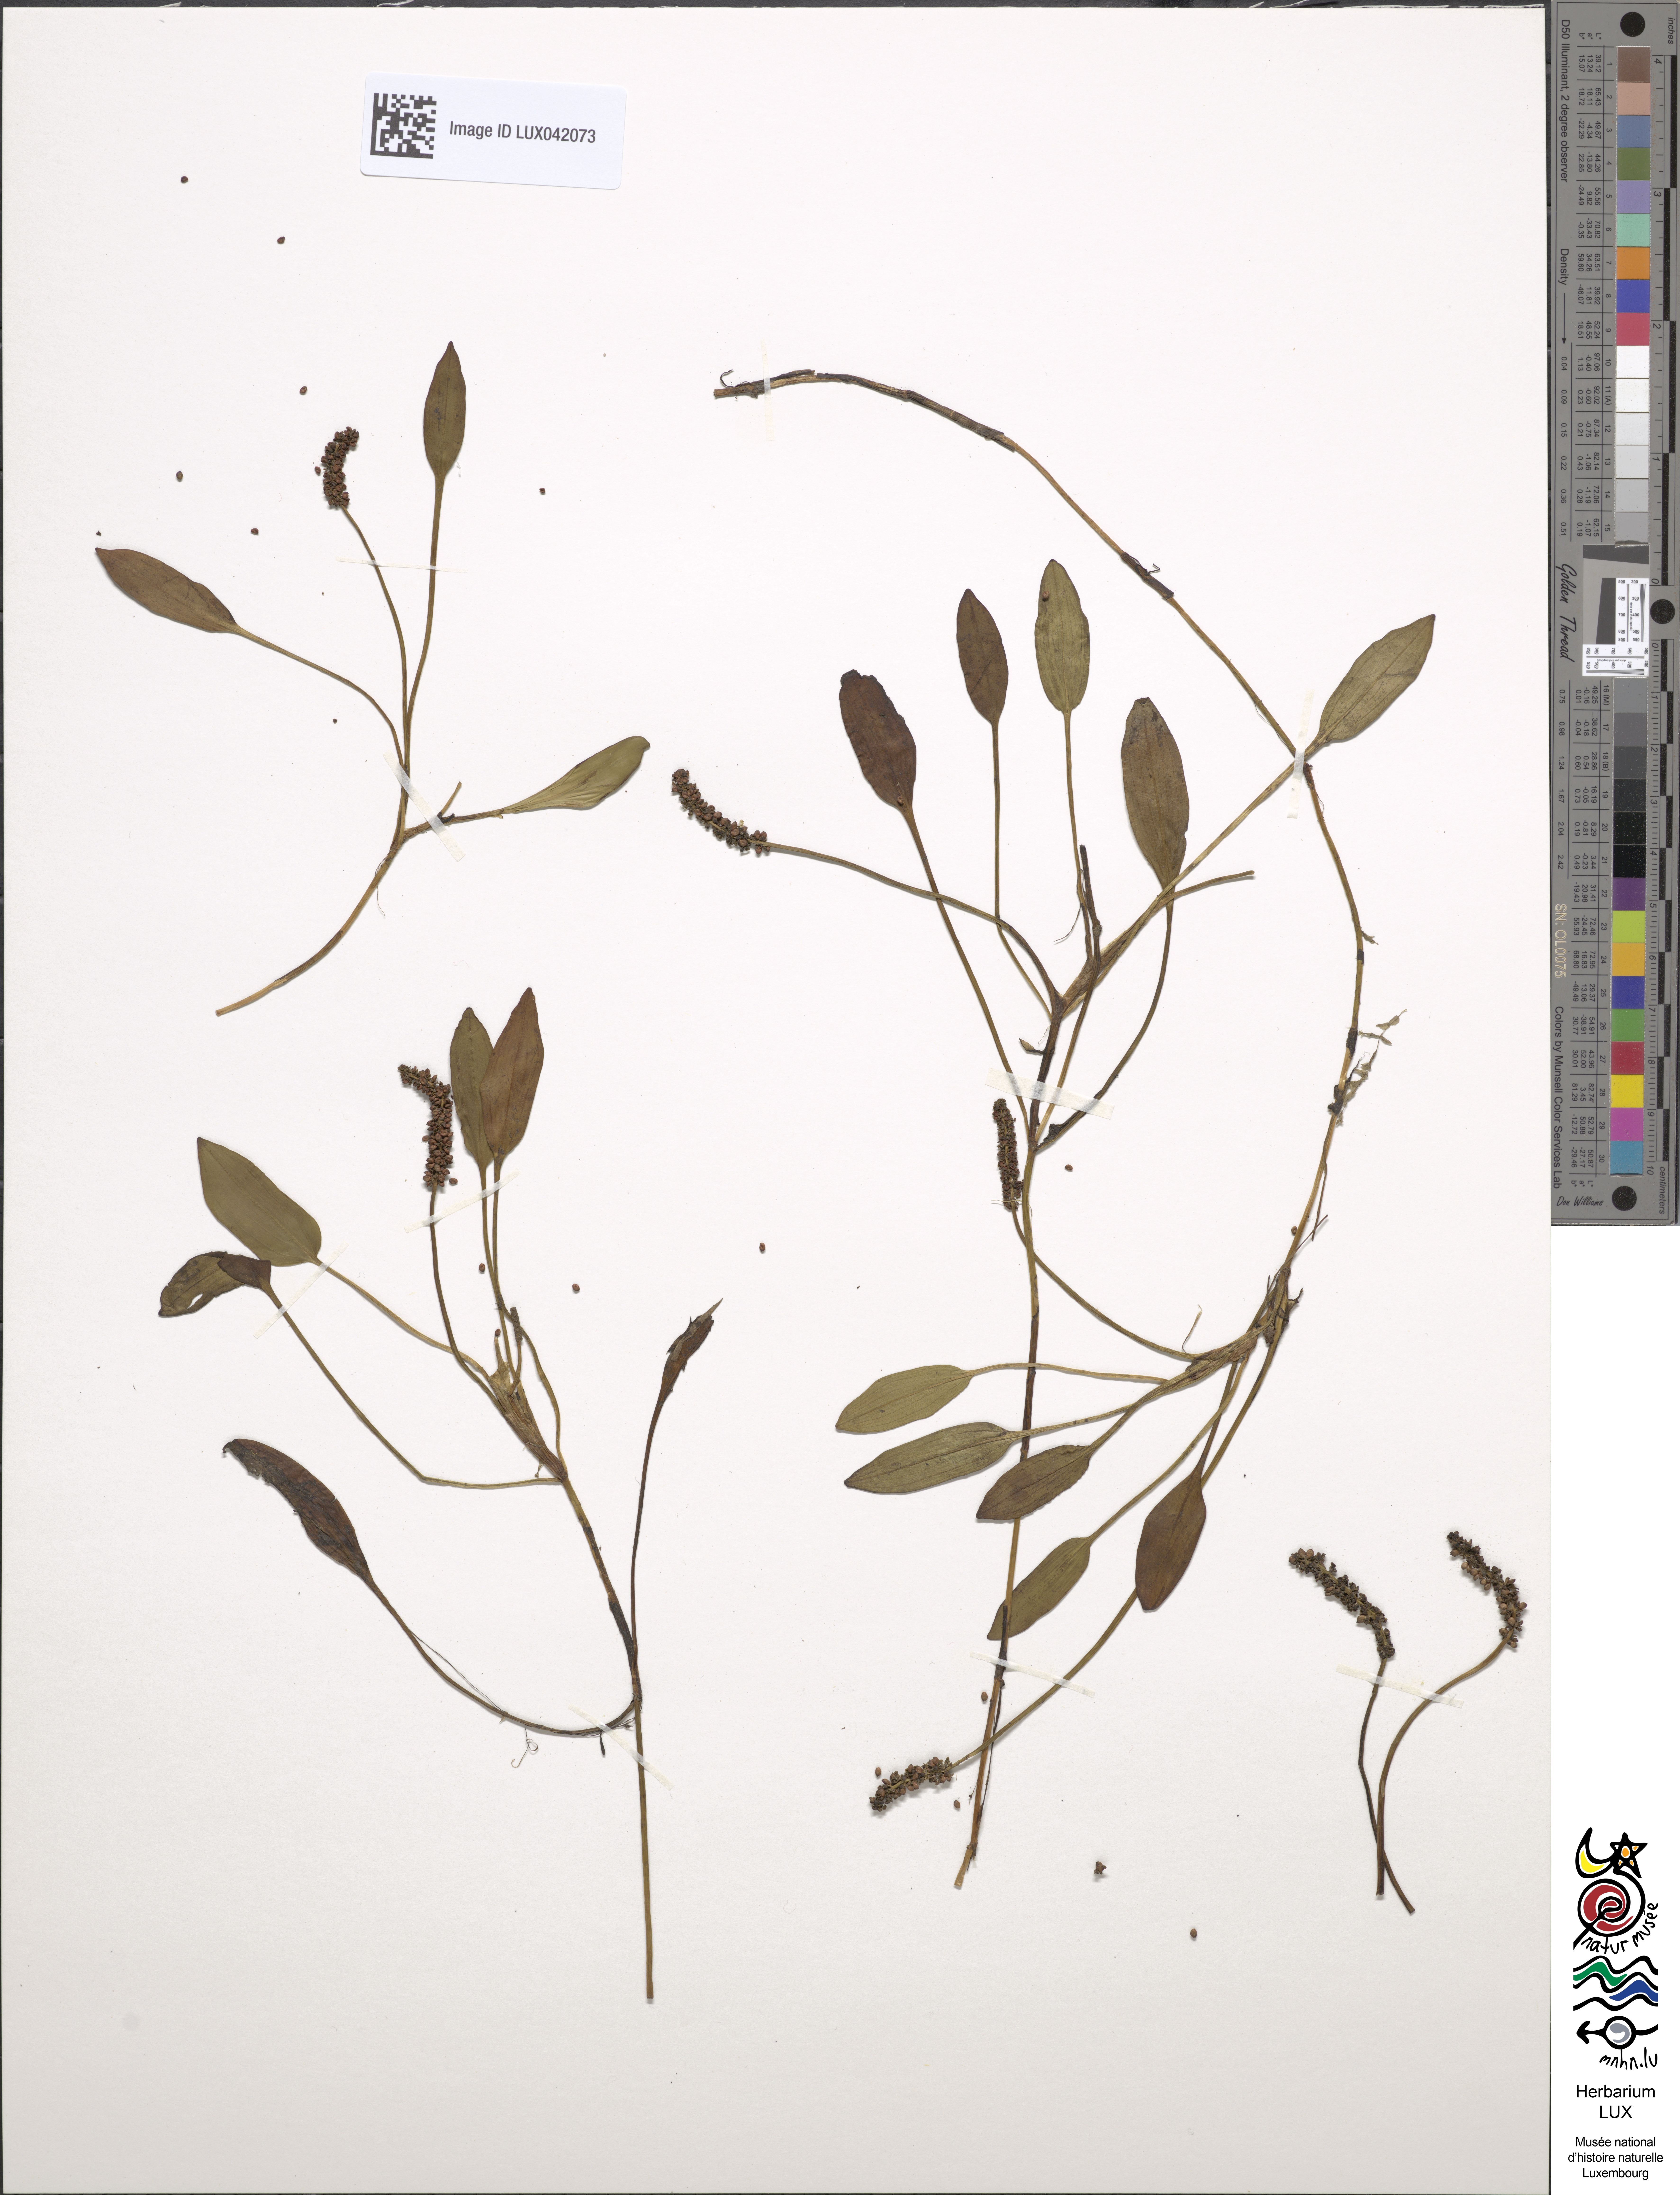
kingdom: Plantae
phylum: Tracheophyta
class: Liliopsida
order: Alismatales
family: Potamogetonaceae
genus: Potamogeton
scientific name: Potamogeton polygonifolius
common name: Bog pondweed
